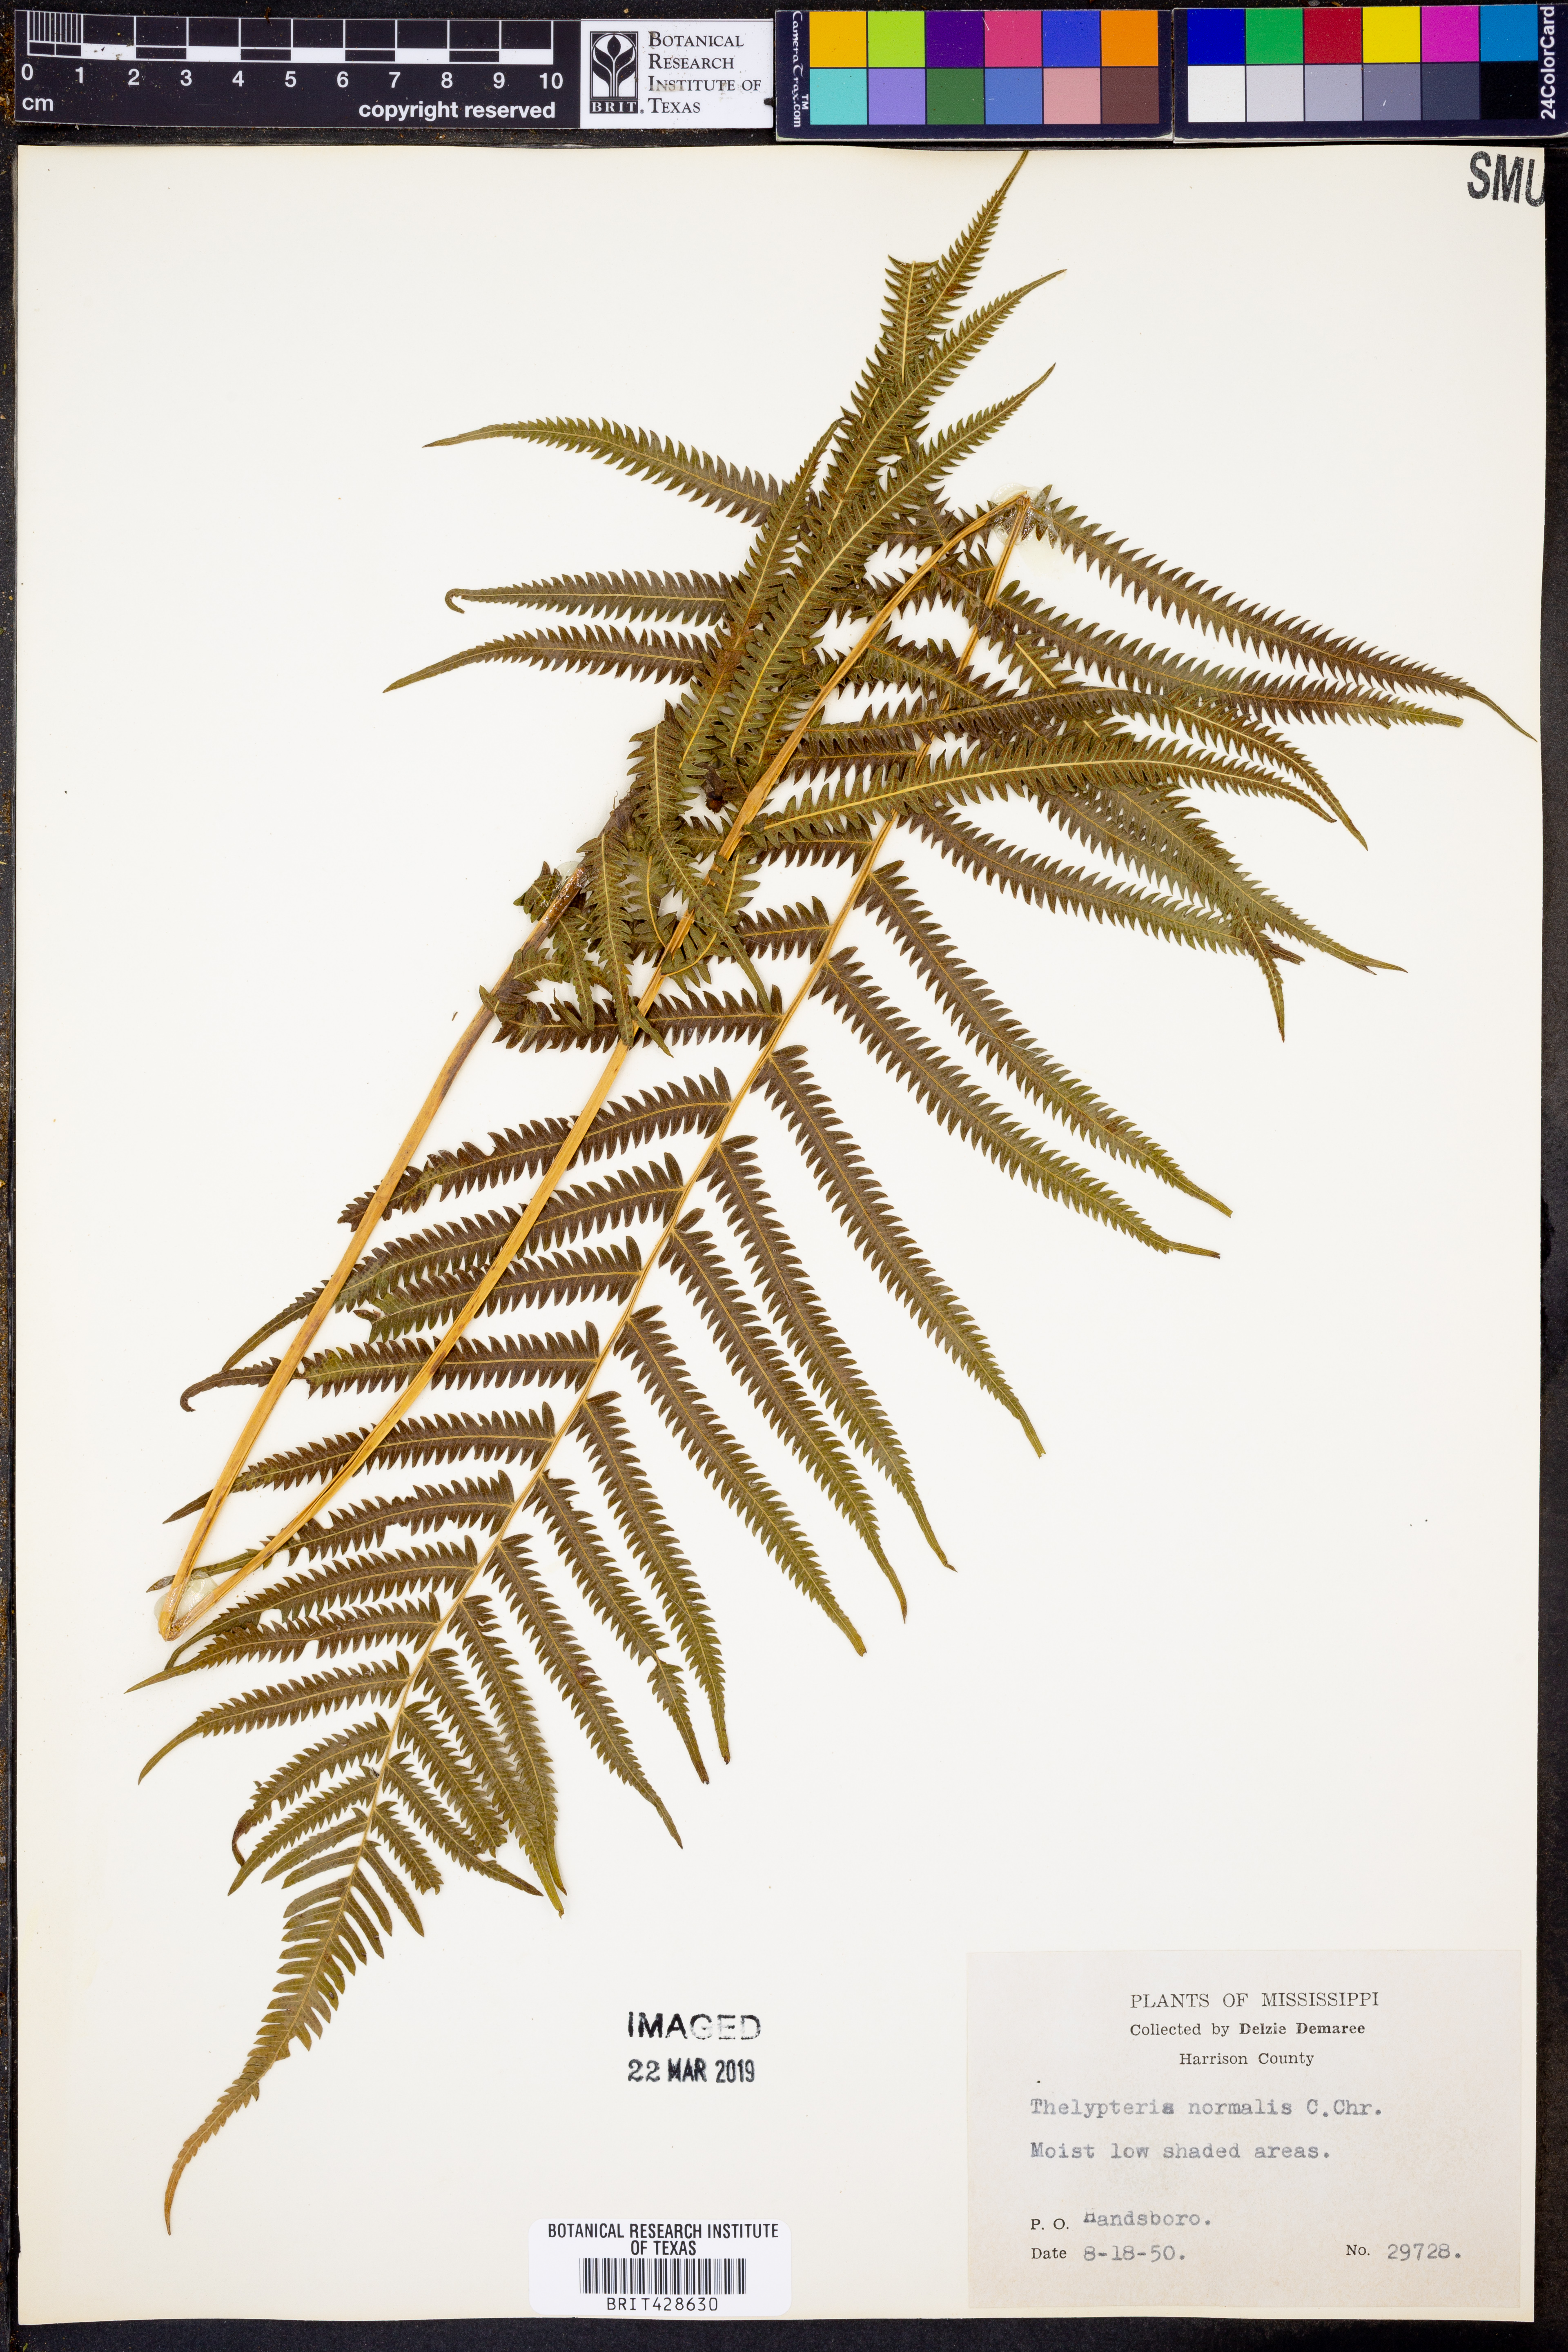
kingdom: Plantae
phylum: Tracheophyta
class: Polypodiopsida
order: Polypodiales
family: Thelypteridaceae
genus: Pelazoneuron
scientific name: Pelazoneuron kunthii
